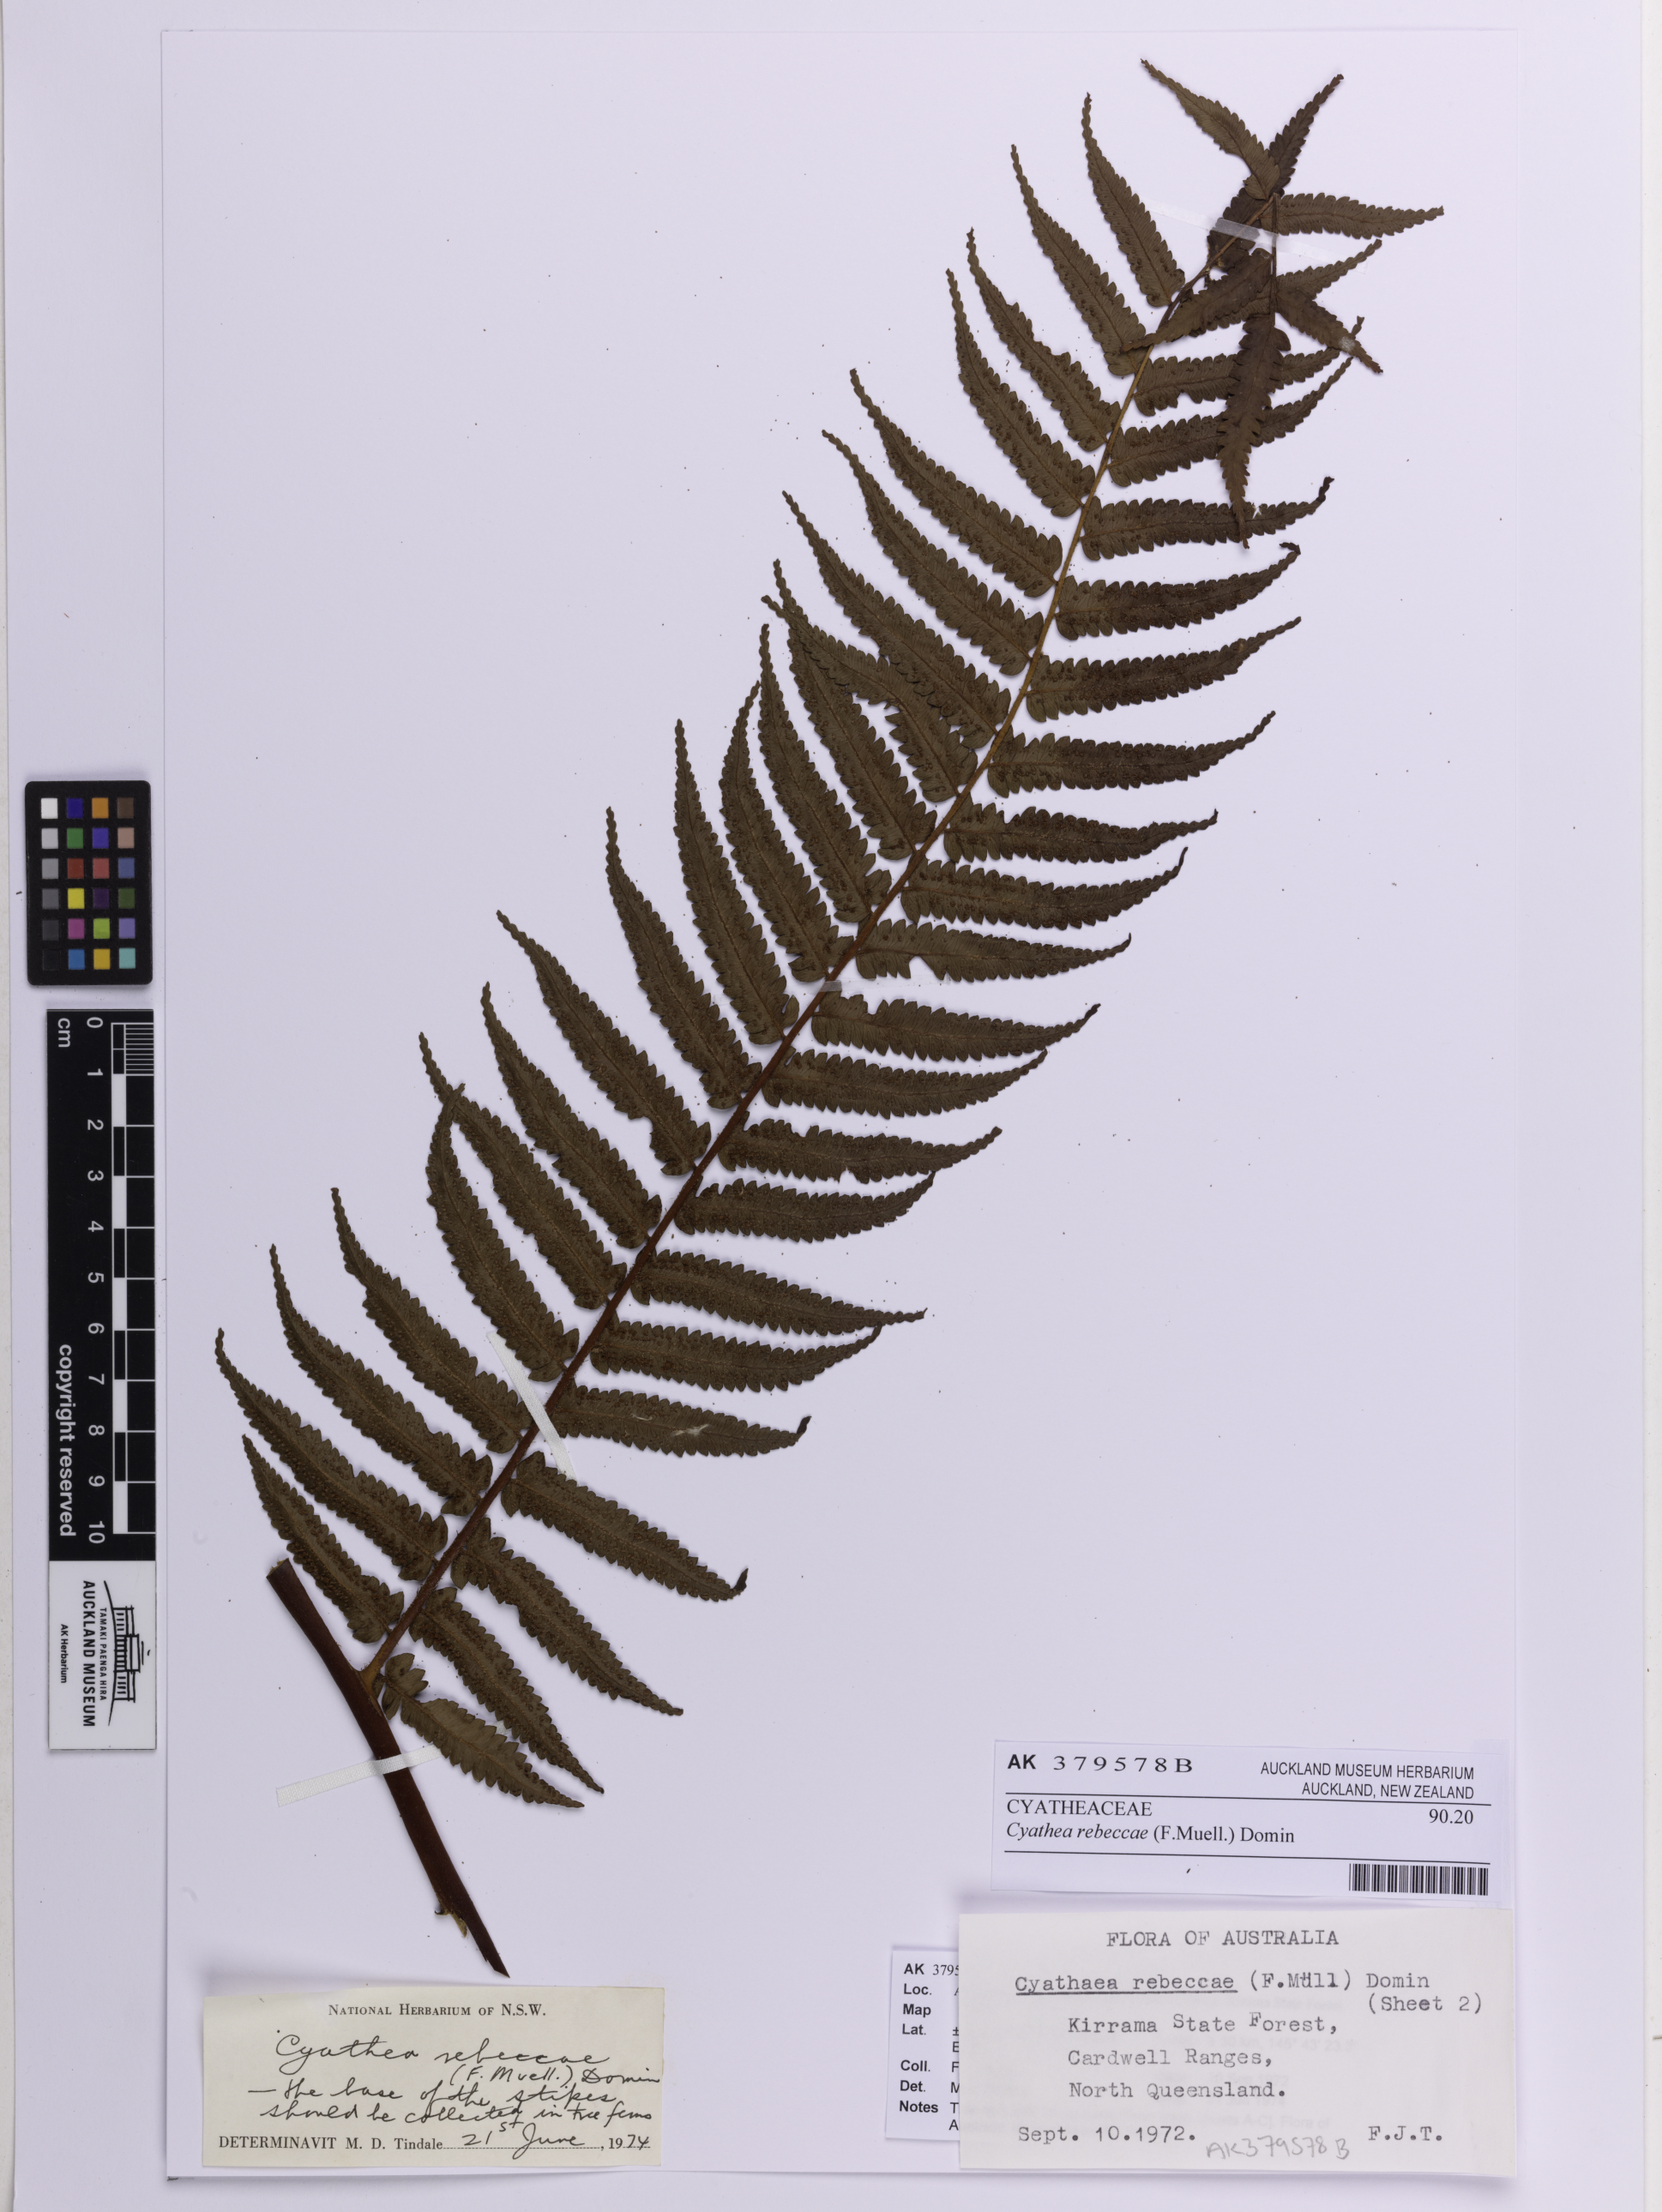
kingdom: Plantae
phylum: Tracheophyta
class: Polypodiopsida
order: Cyatheales
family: Cyatheaceae
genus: Gymnosphaera
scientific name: Gymnosphaera rebeccae
